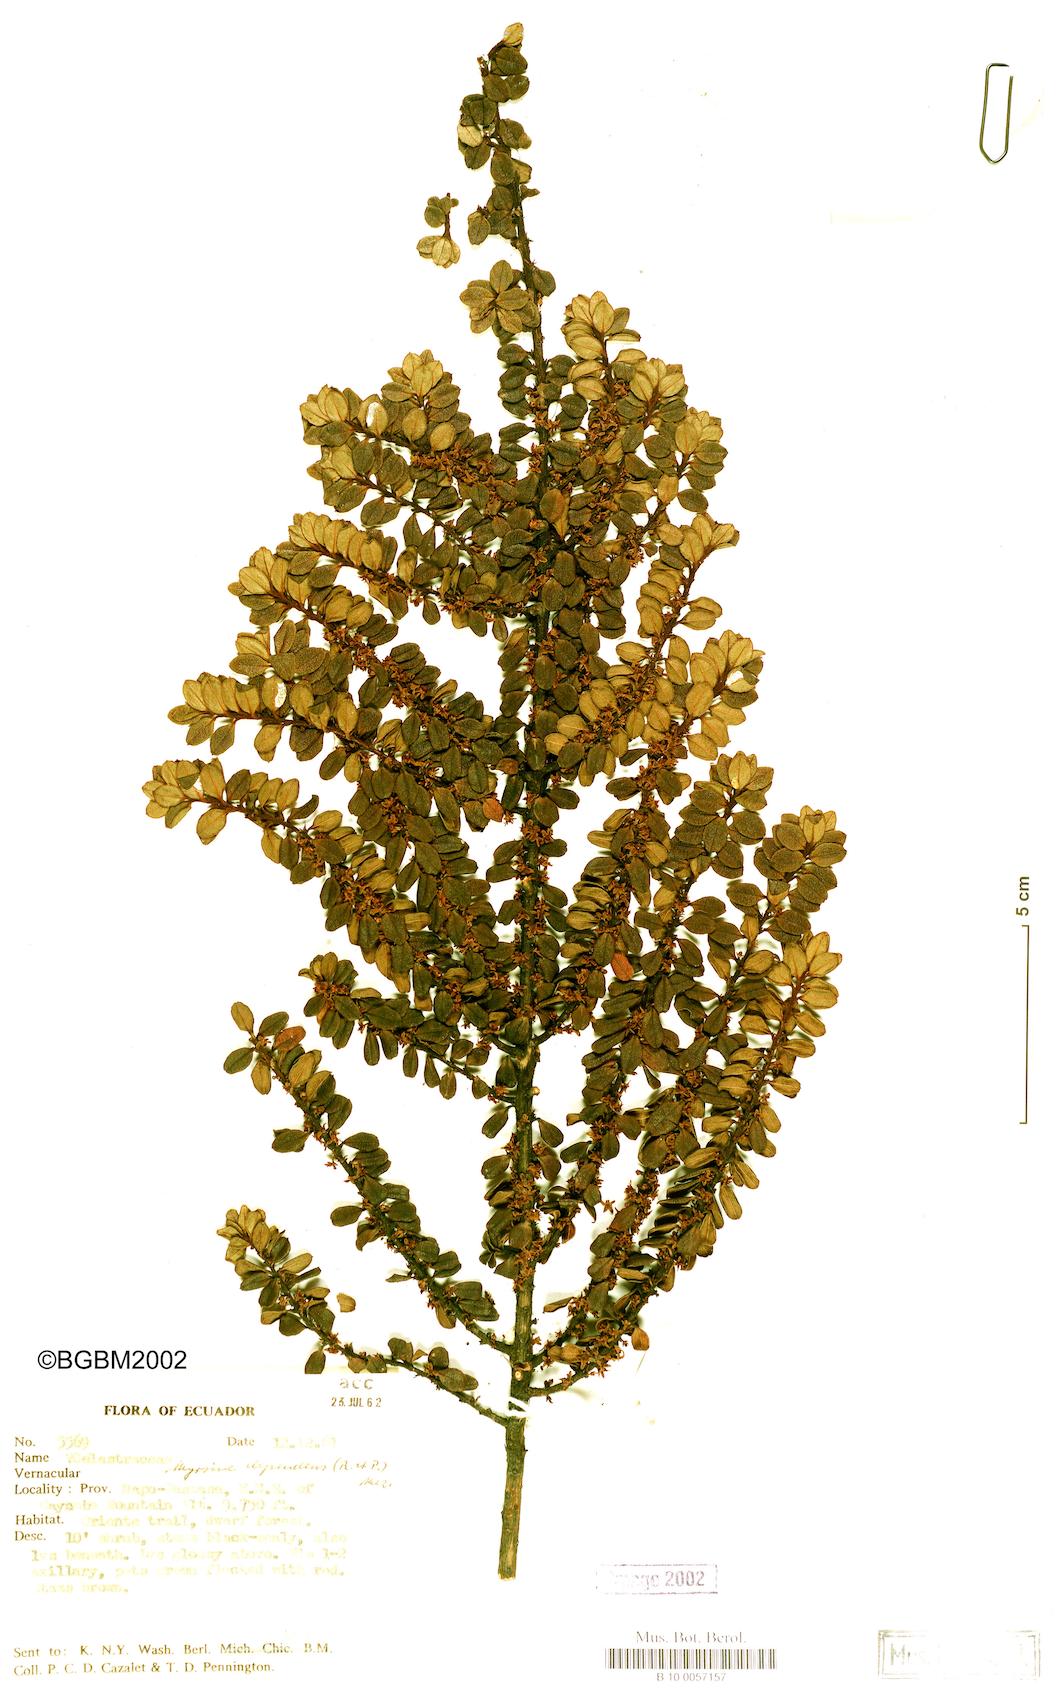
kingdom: Plantae
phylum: Tracheophyta
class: Magnoliopsida
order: Ericales
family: Primulaceae
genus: Myrsine
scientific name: Myrsine dependens
